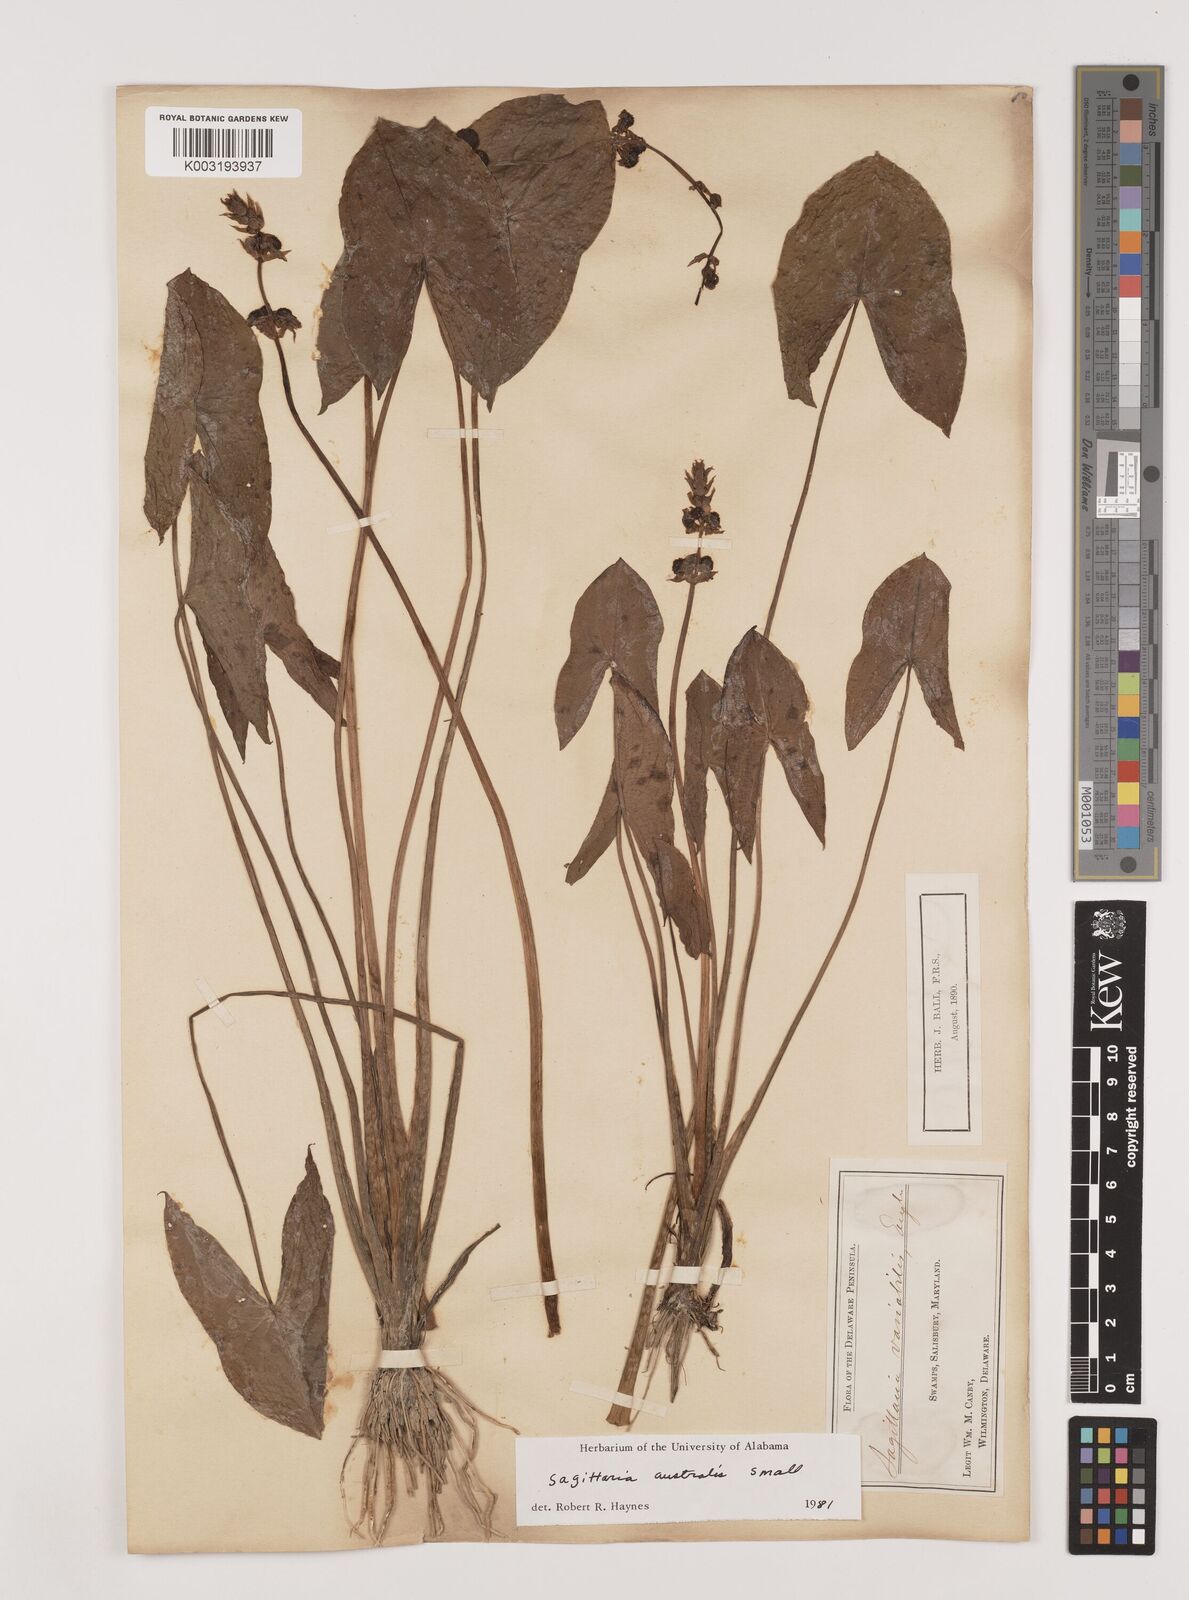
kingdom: Plantae
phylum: Tracheophyta
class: Liliopsida
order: Alismatales
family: Alismataceae
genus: Sagittaria
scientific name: Sagittaria engelmanniana
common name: Acid-water arrowhead
